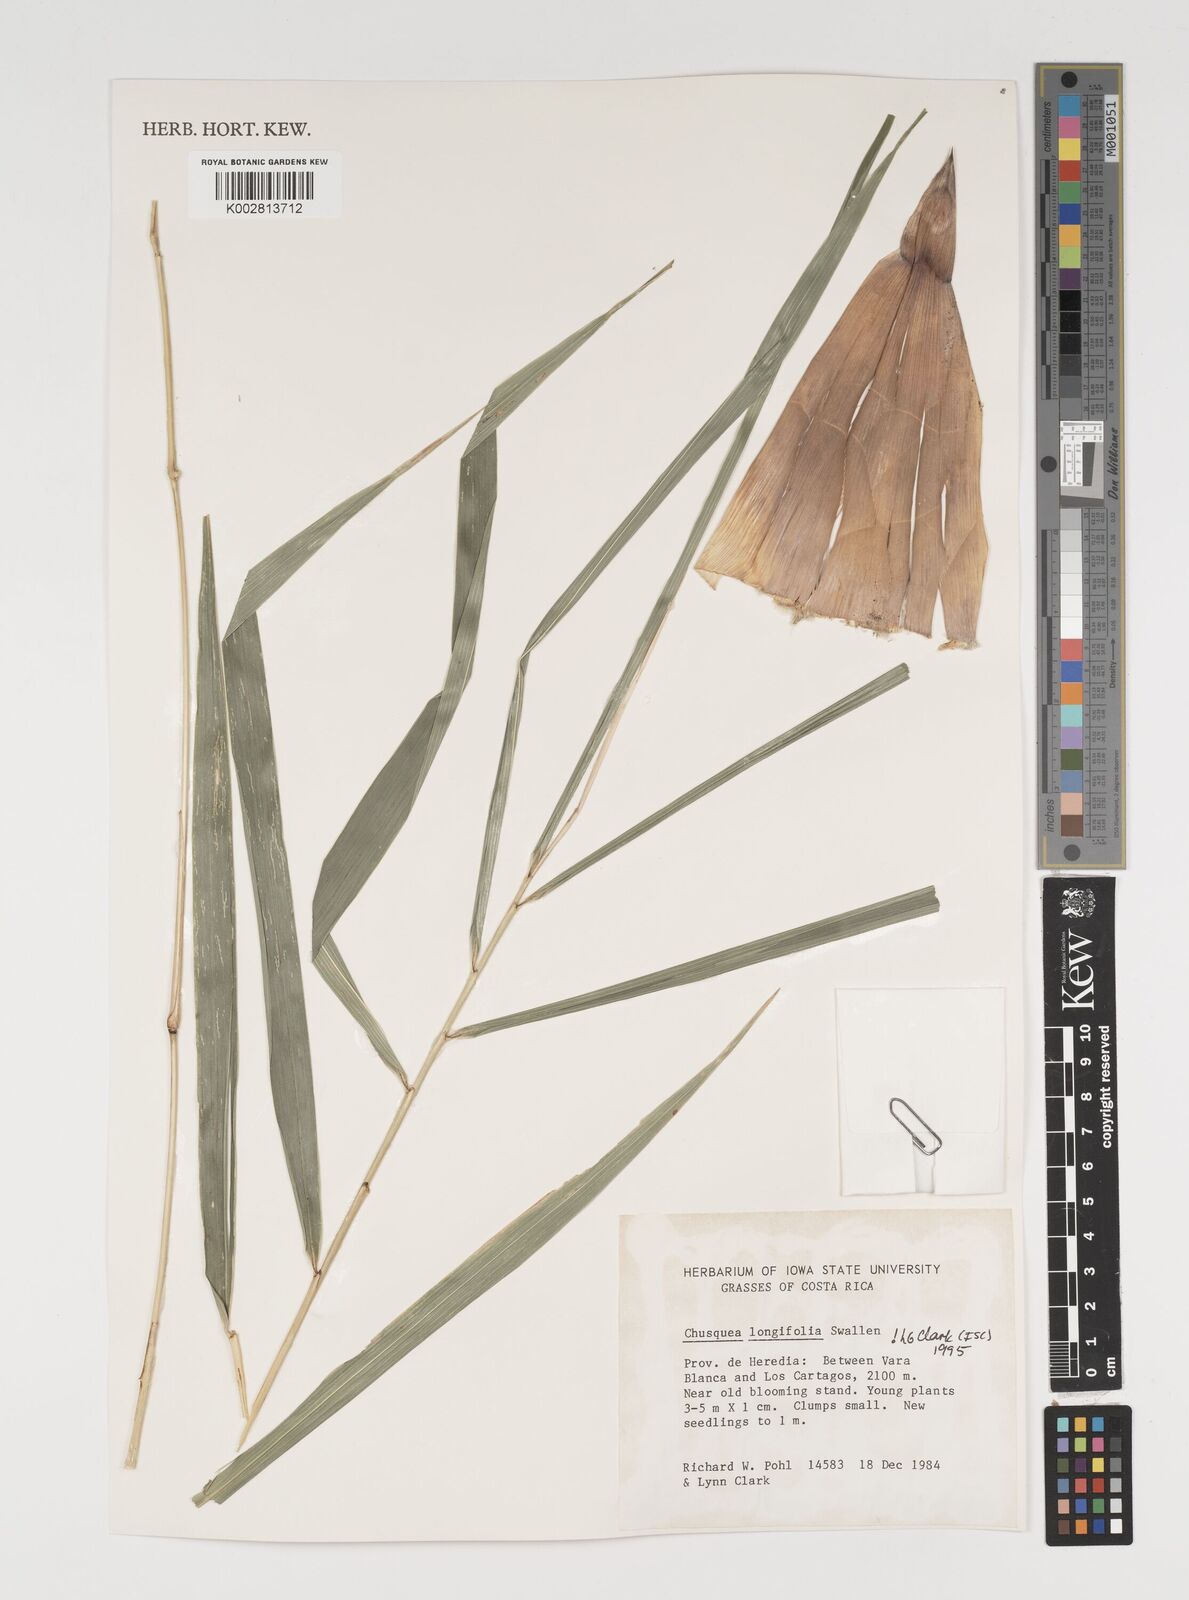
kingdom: Plantae
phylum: Tracheophyta
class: Liliopsida
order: Poales
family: Poaceae
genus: Chusquea
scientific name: Chusquea longifolia
